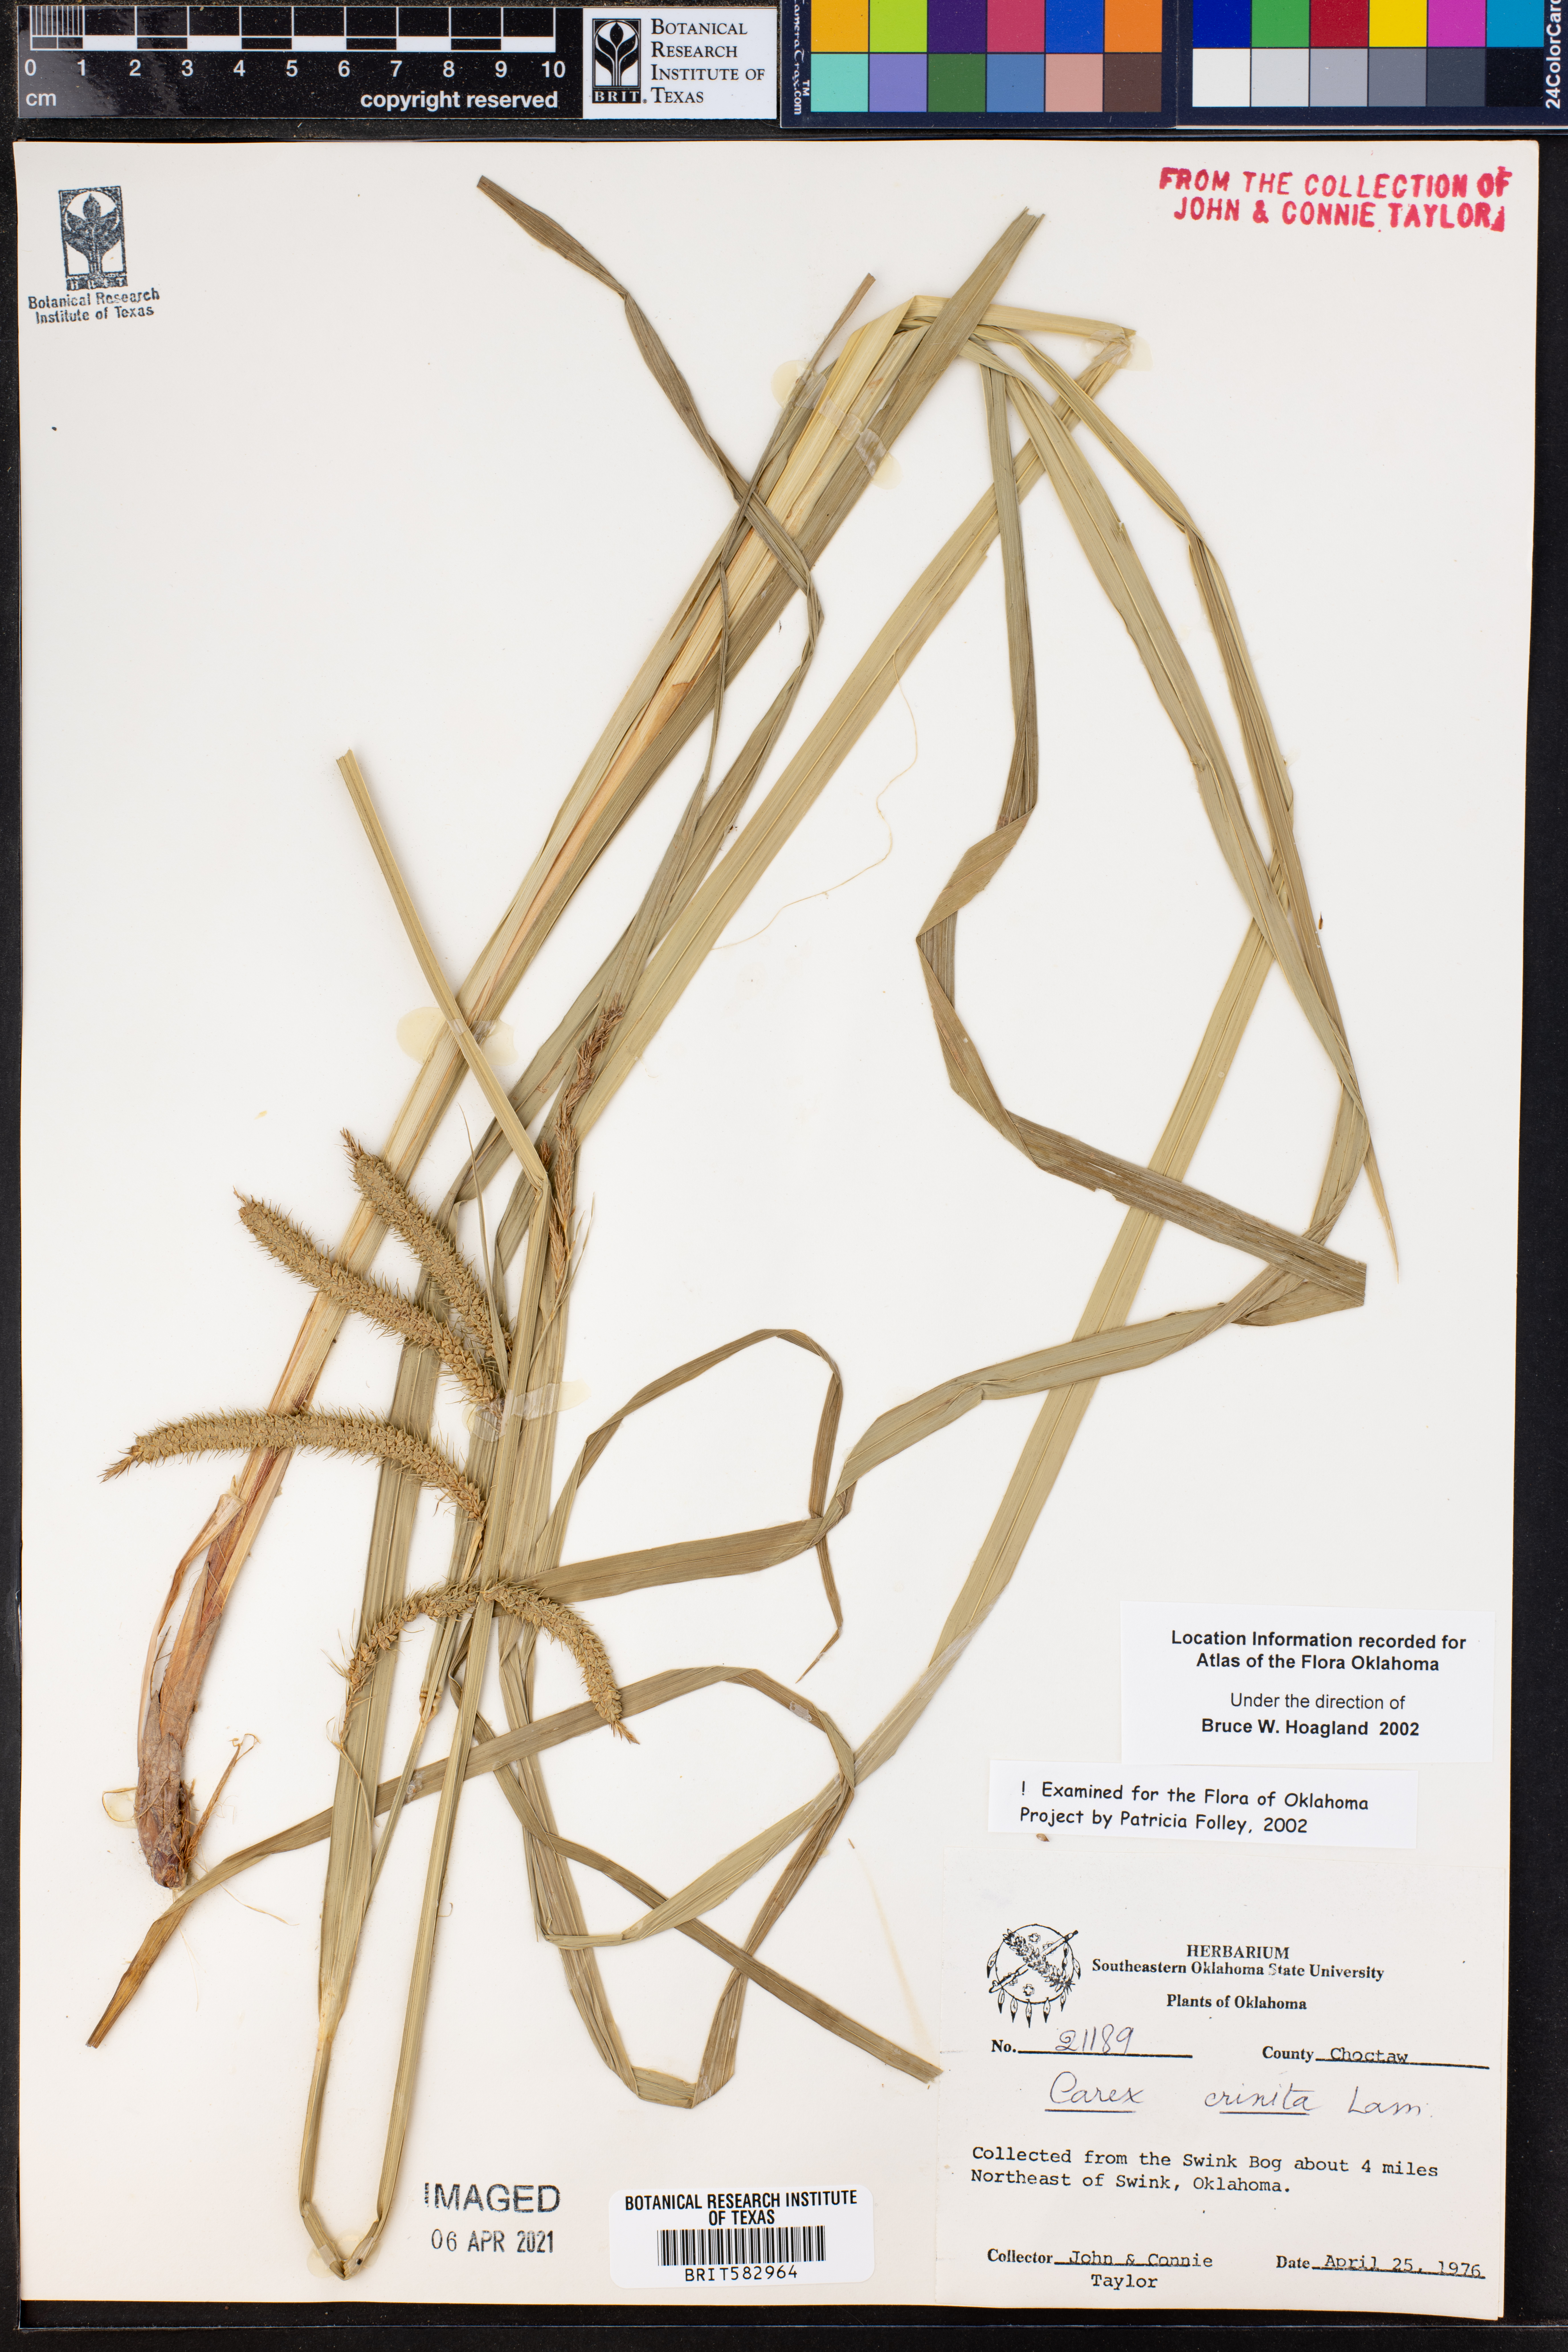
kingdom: Plantae
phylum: Tracheophyta
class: Liliopsida
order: Poales
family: Cyperaceae
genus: Carex
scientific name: Carex crinita
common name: Fringed sedge
